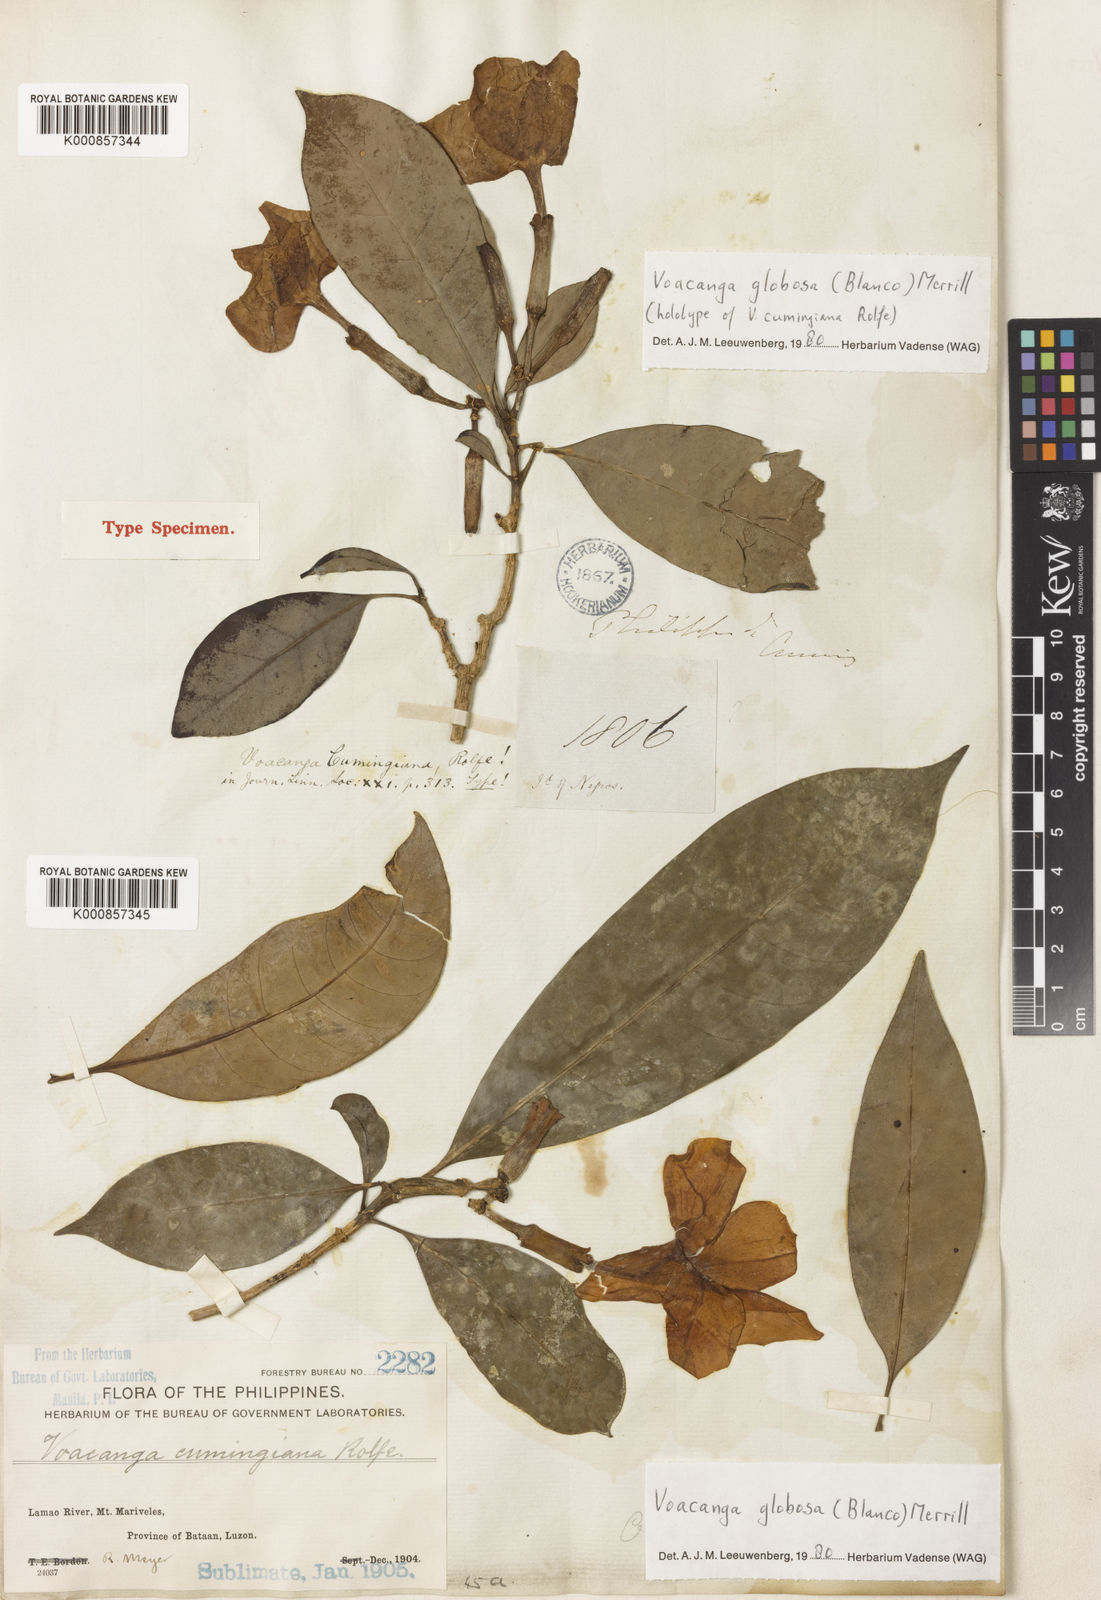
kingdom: Plantae
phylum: Tracheophyta
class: Magnoliopsida
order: Gentianales
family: Apocynaceae
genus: Voacanga
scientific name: Voacanga globosa
